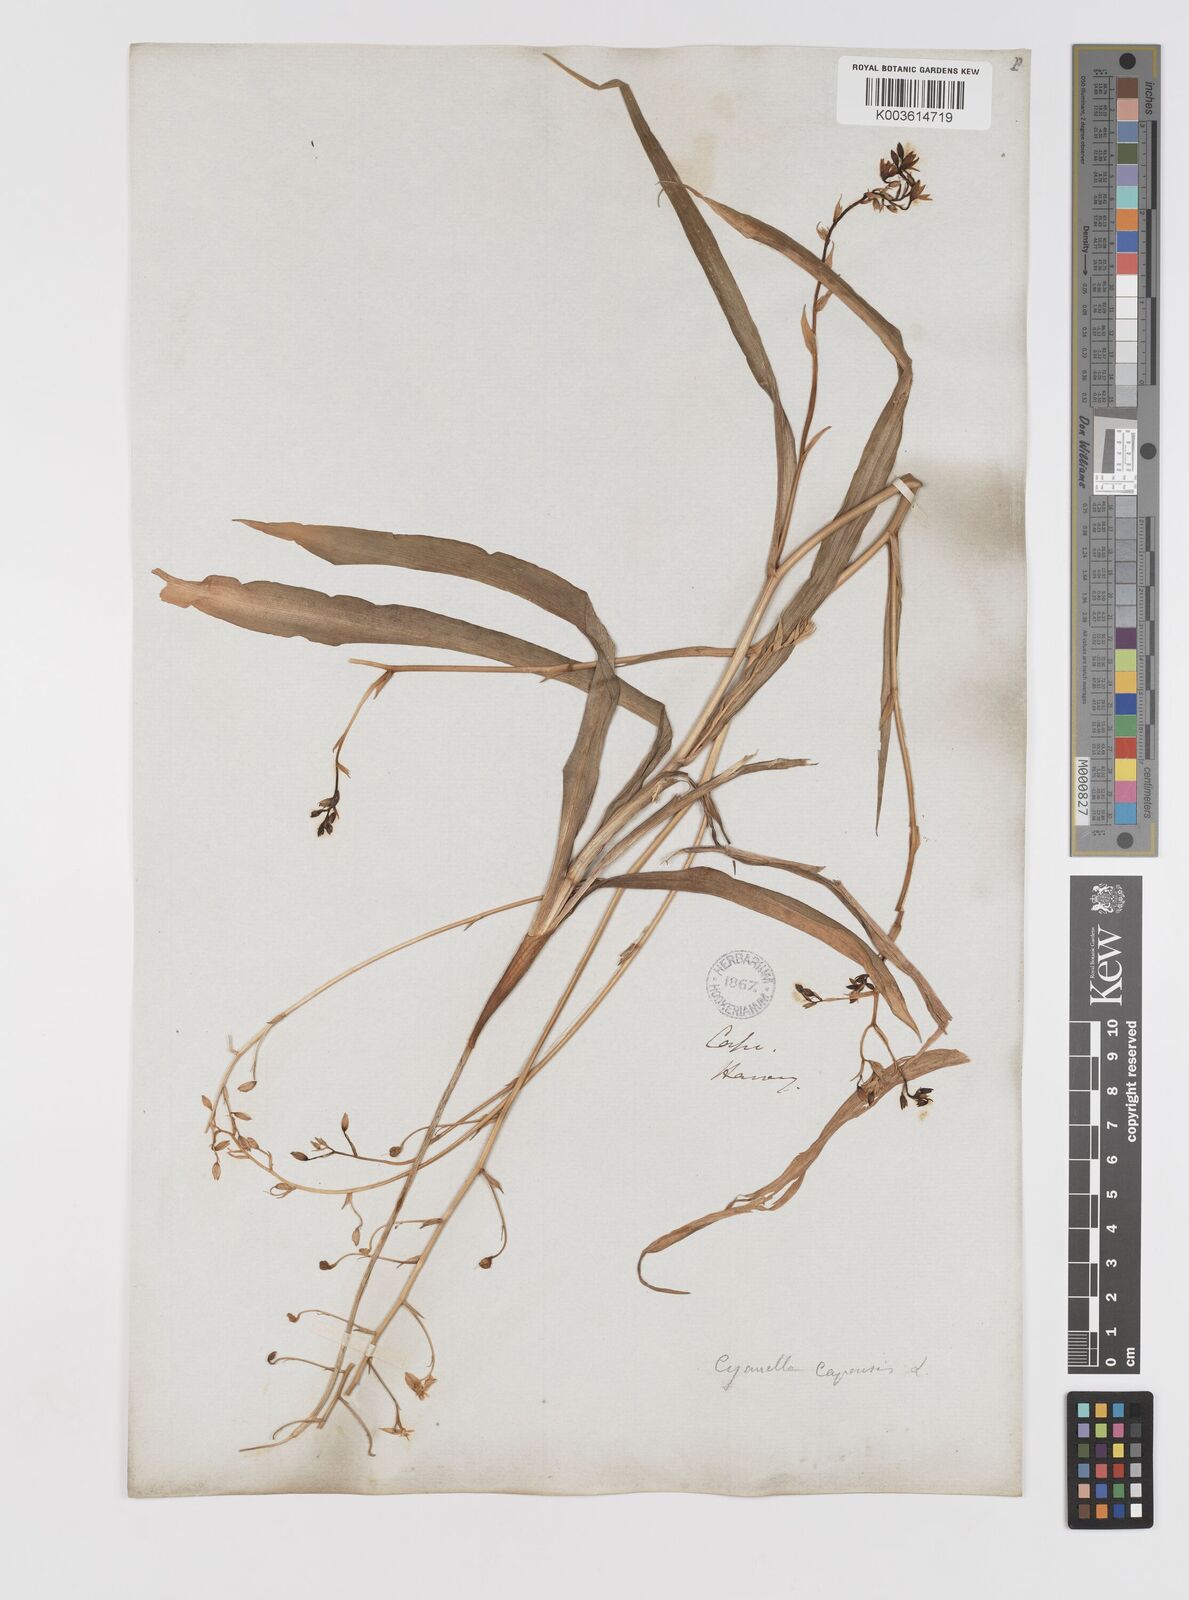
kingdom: Plantae
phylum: Tracheophyta
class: Liliopsida
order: Asparagales
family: Tecophilaeaceae
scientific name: Tecophilaeaceae
